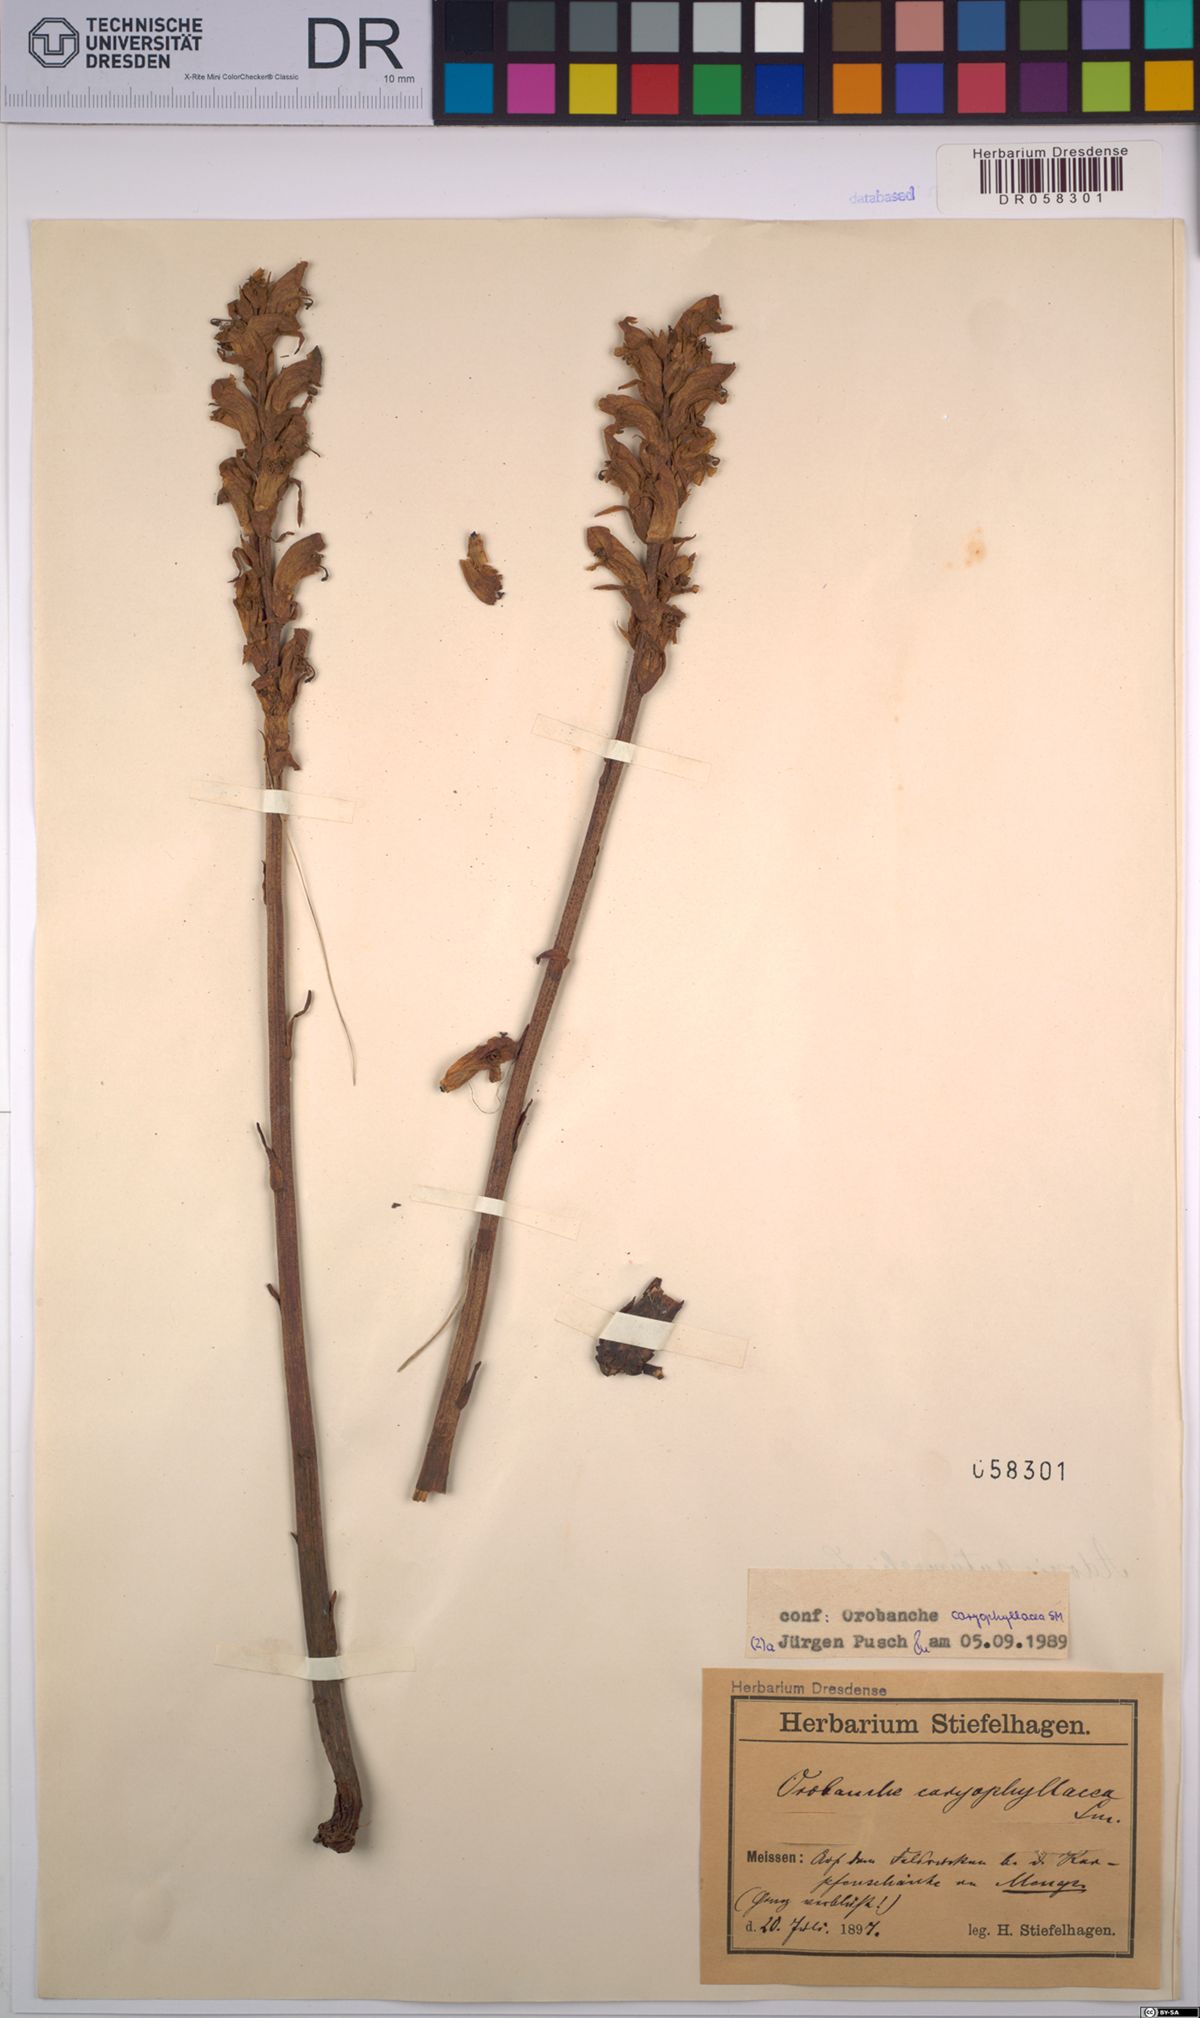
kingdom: Plantae
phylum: Tracheophyta
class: Magnoliopsida
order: Lamiales
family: Orobanchaceae
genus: Orobanche
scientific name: Orobanche caryophyllacea
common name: Bedstraw broomrape
